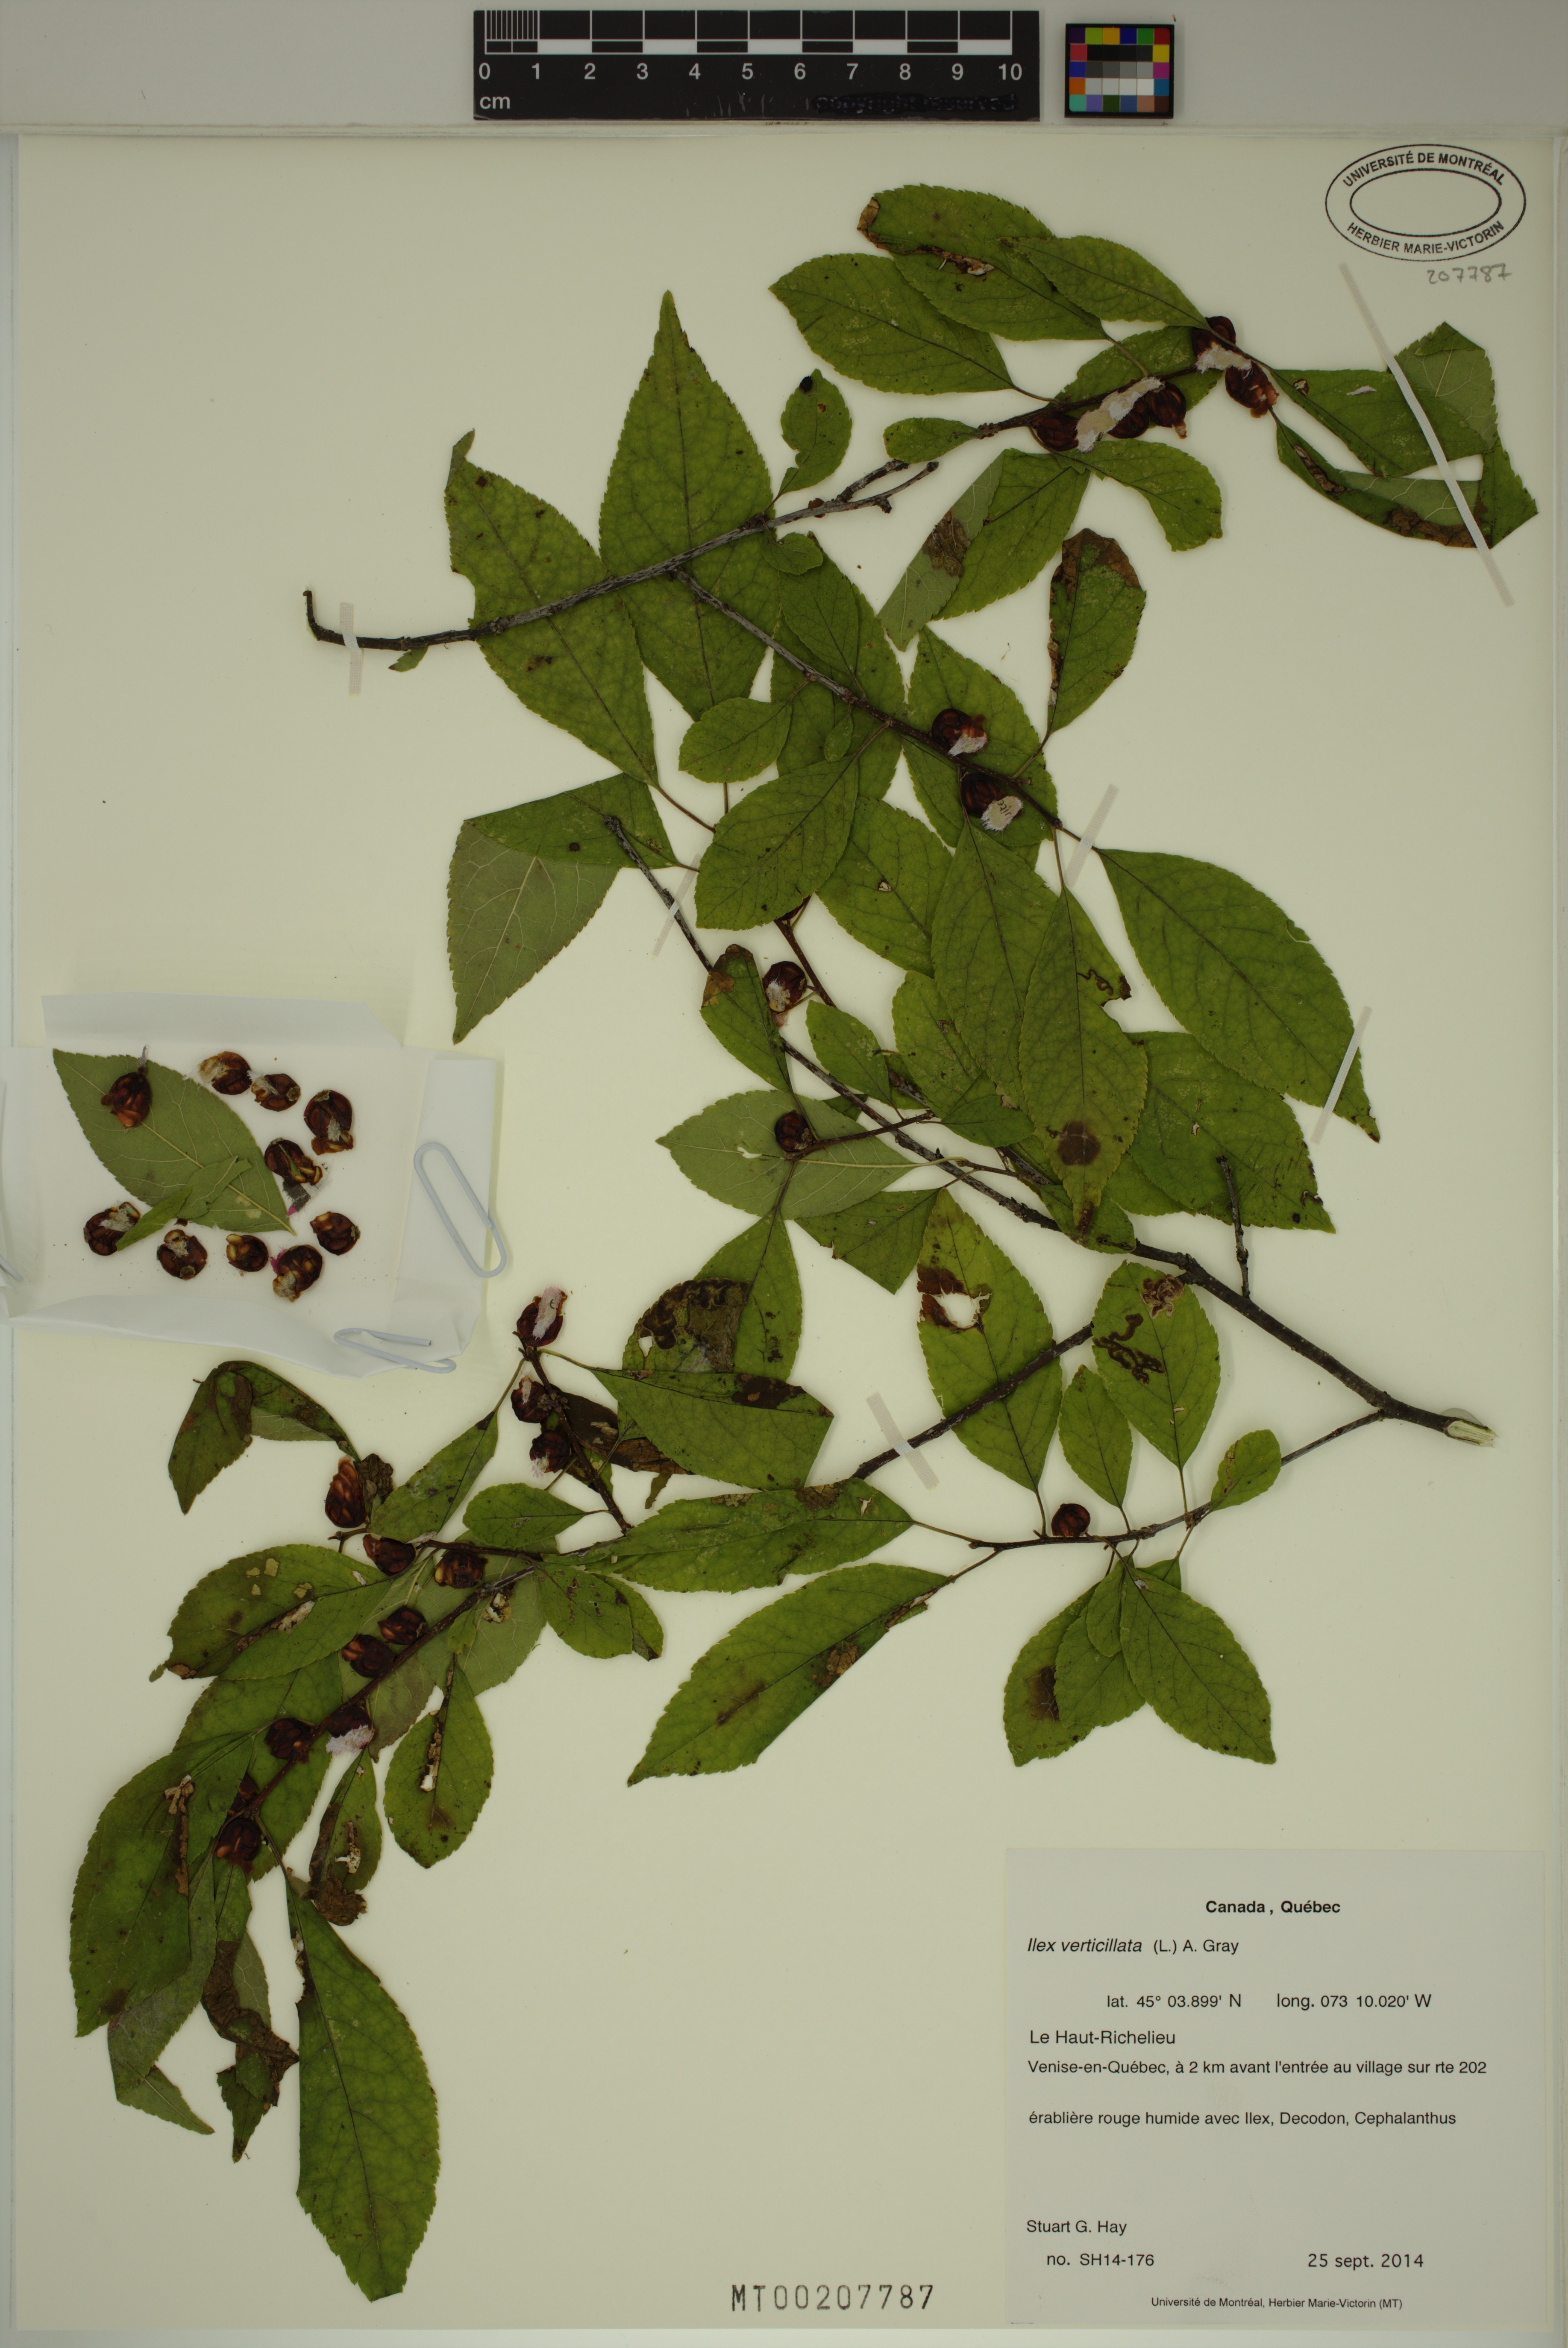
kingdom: Plantae
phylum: Tracheophyta
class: Magnoliopsida
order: Aquifoliales
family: Aquifoliaceae
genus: Ilex
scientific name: Ilex verticillata
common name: Virginia winterberry
